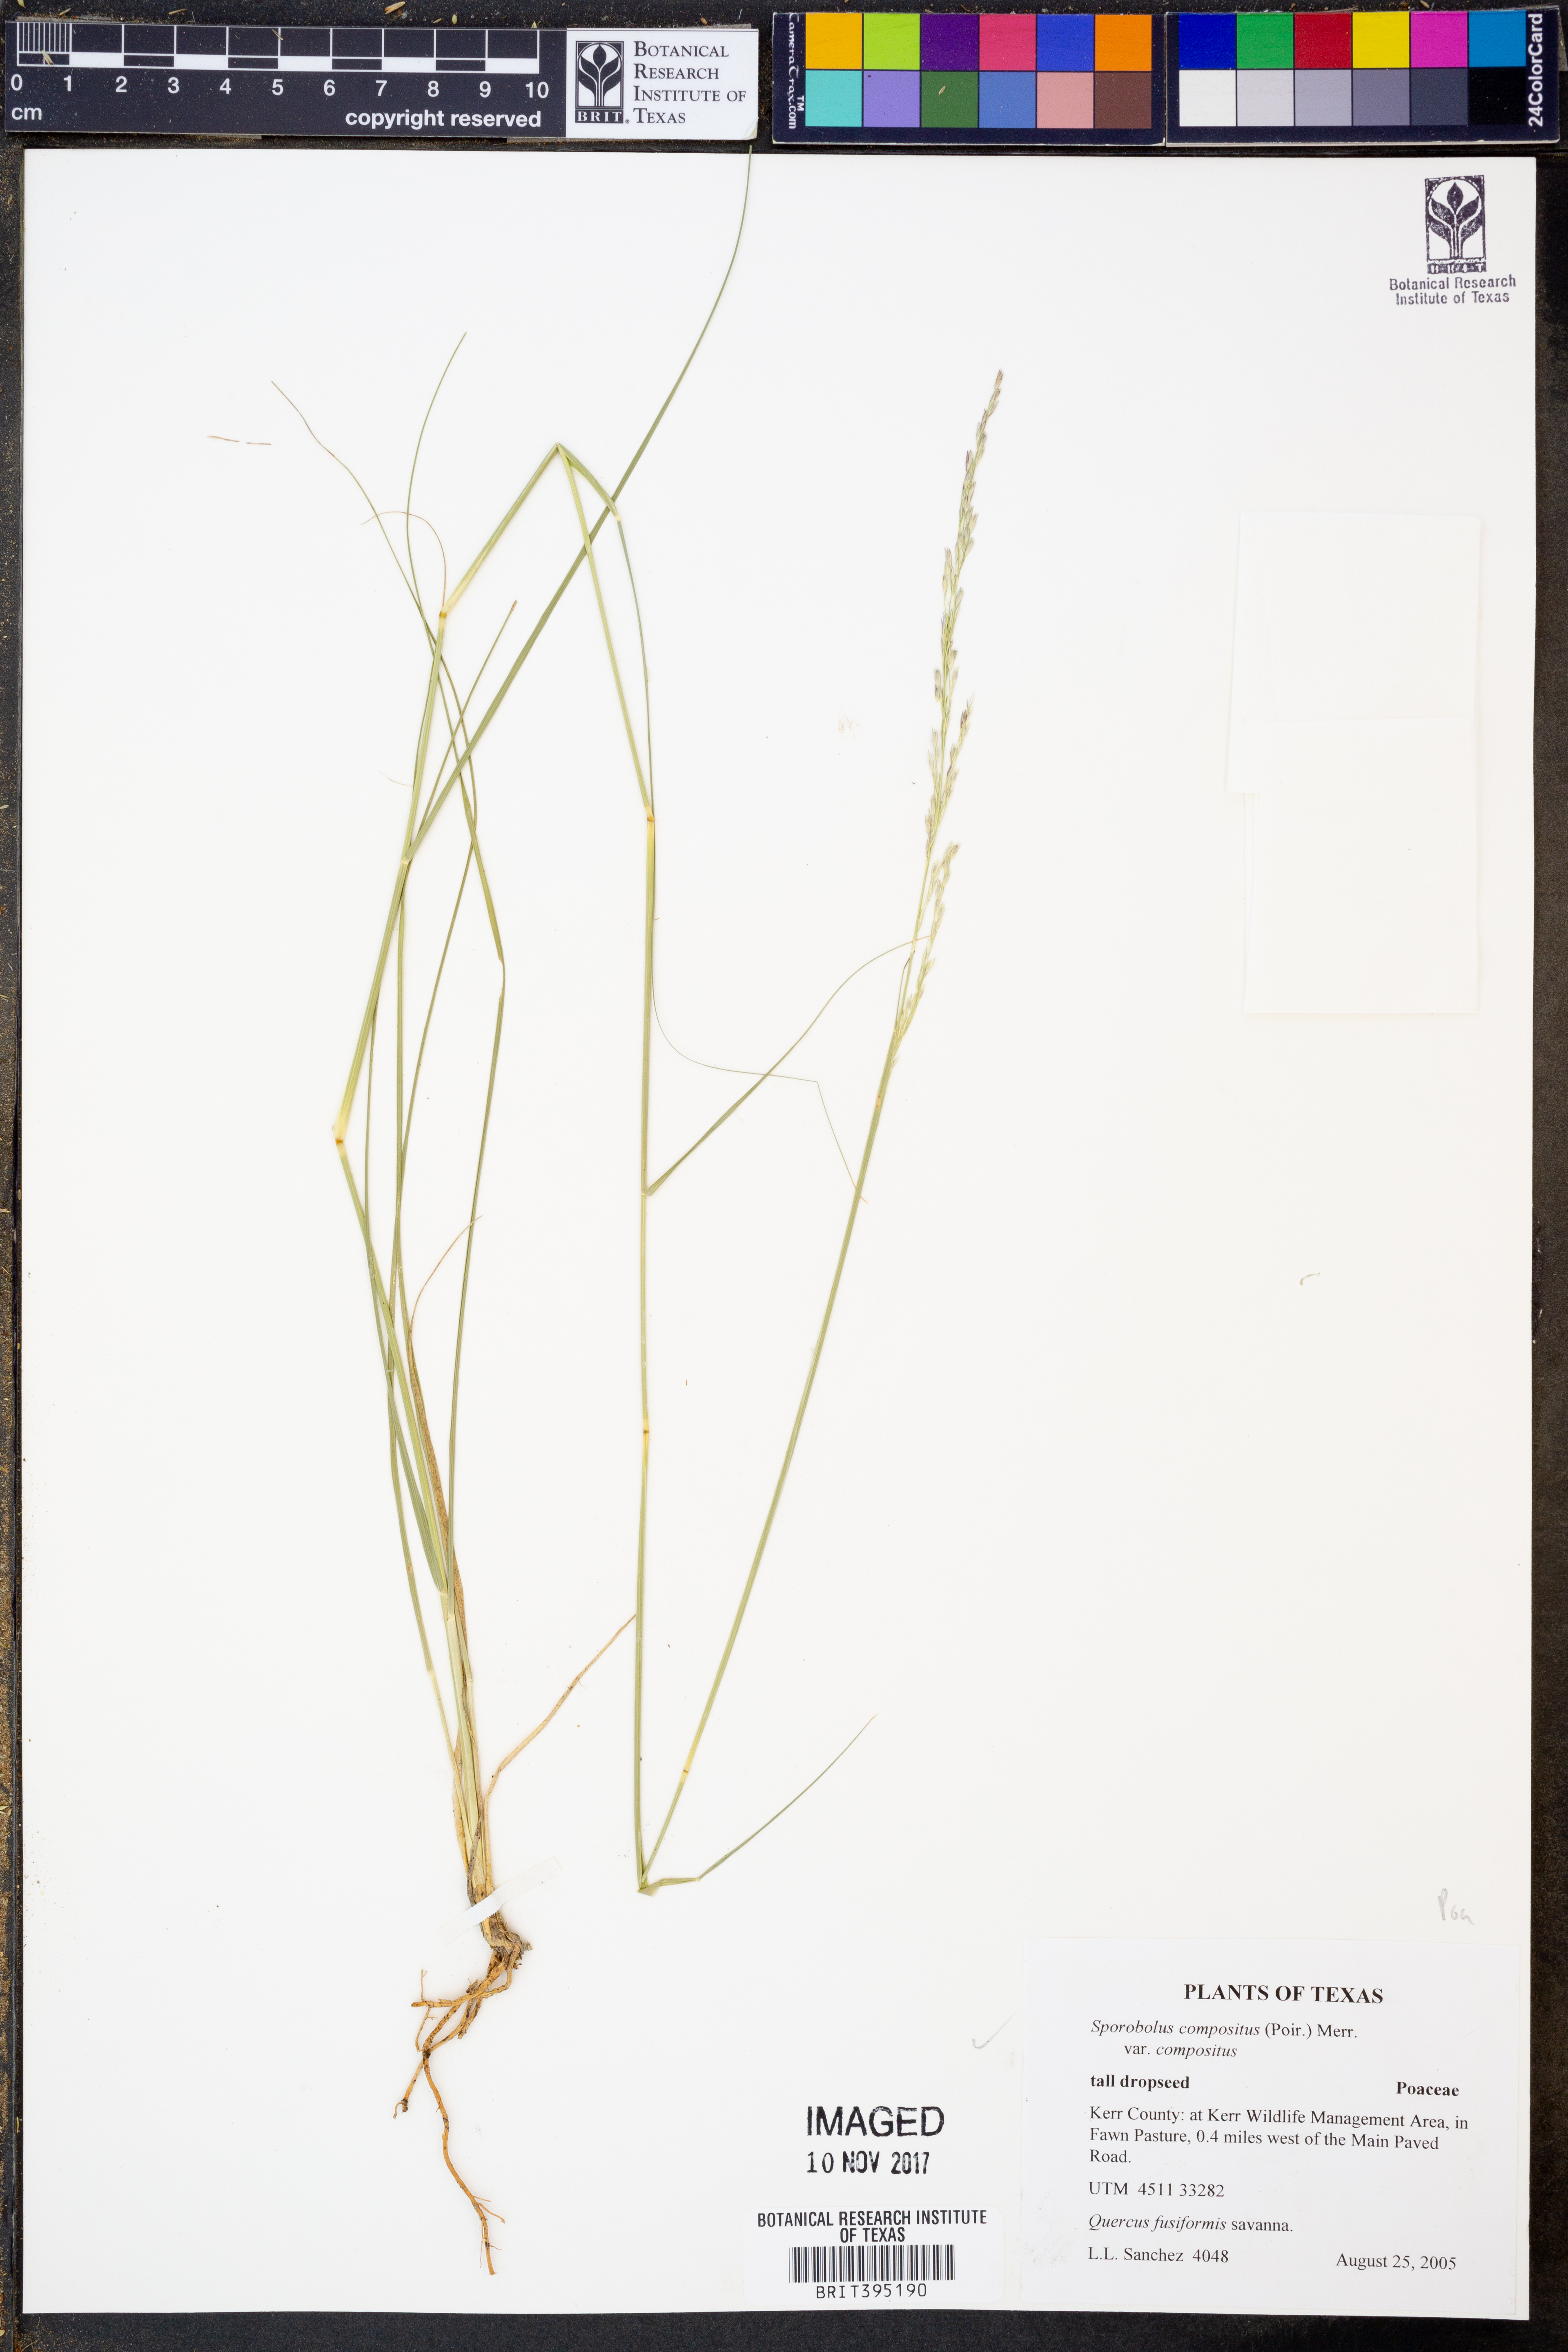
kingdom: Plantae
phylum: Tracheophyta
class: Liliopsida
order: Poales
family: Poaceae
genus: Sporobolus
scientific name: Sporobolus compositus
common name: Rough dropseed
